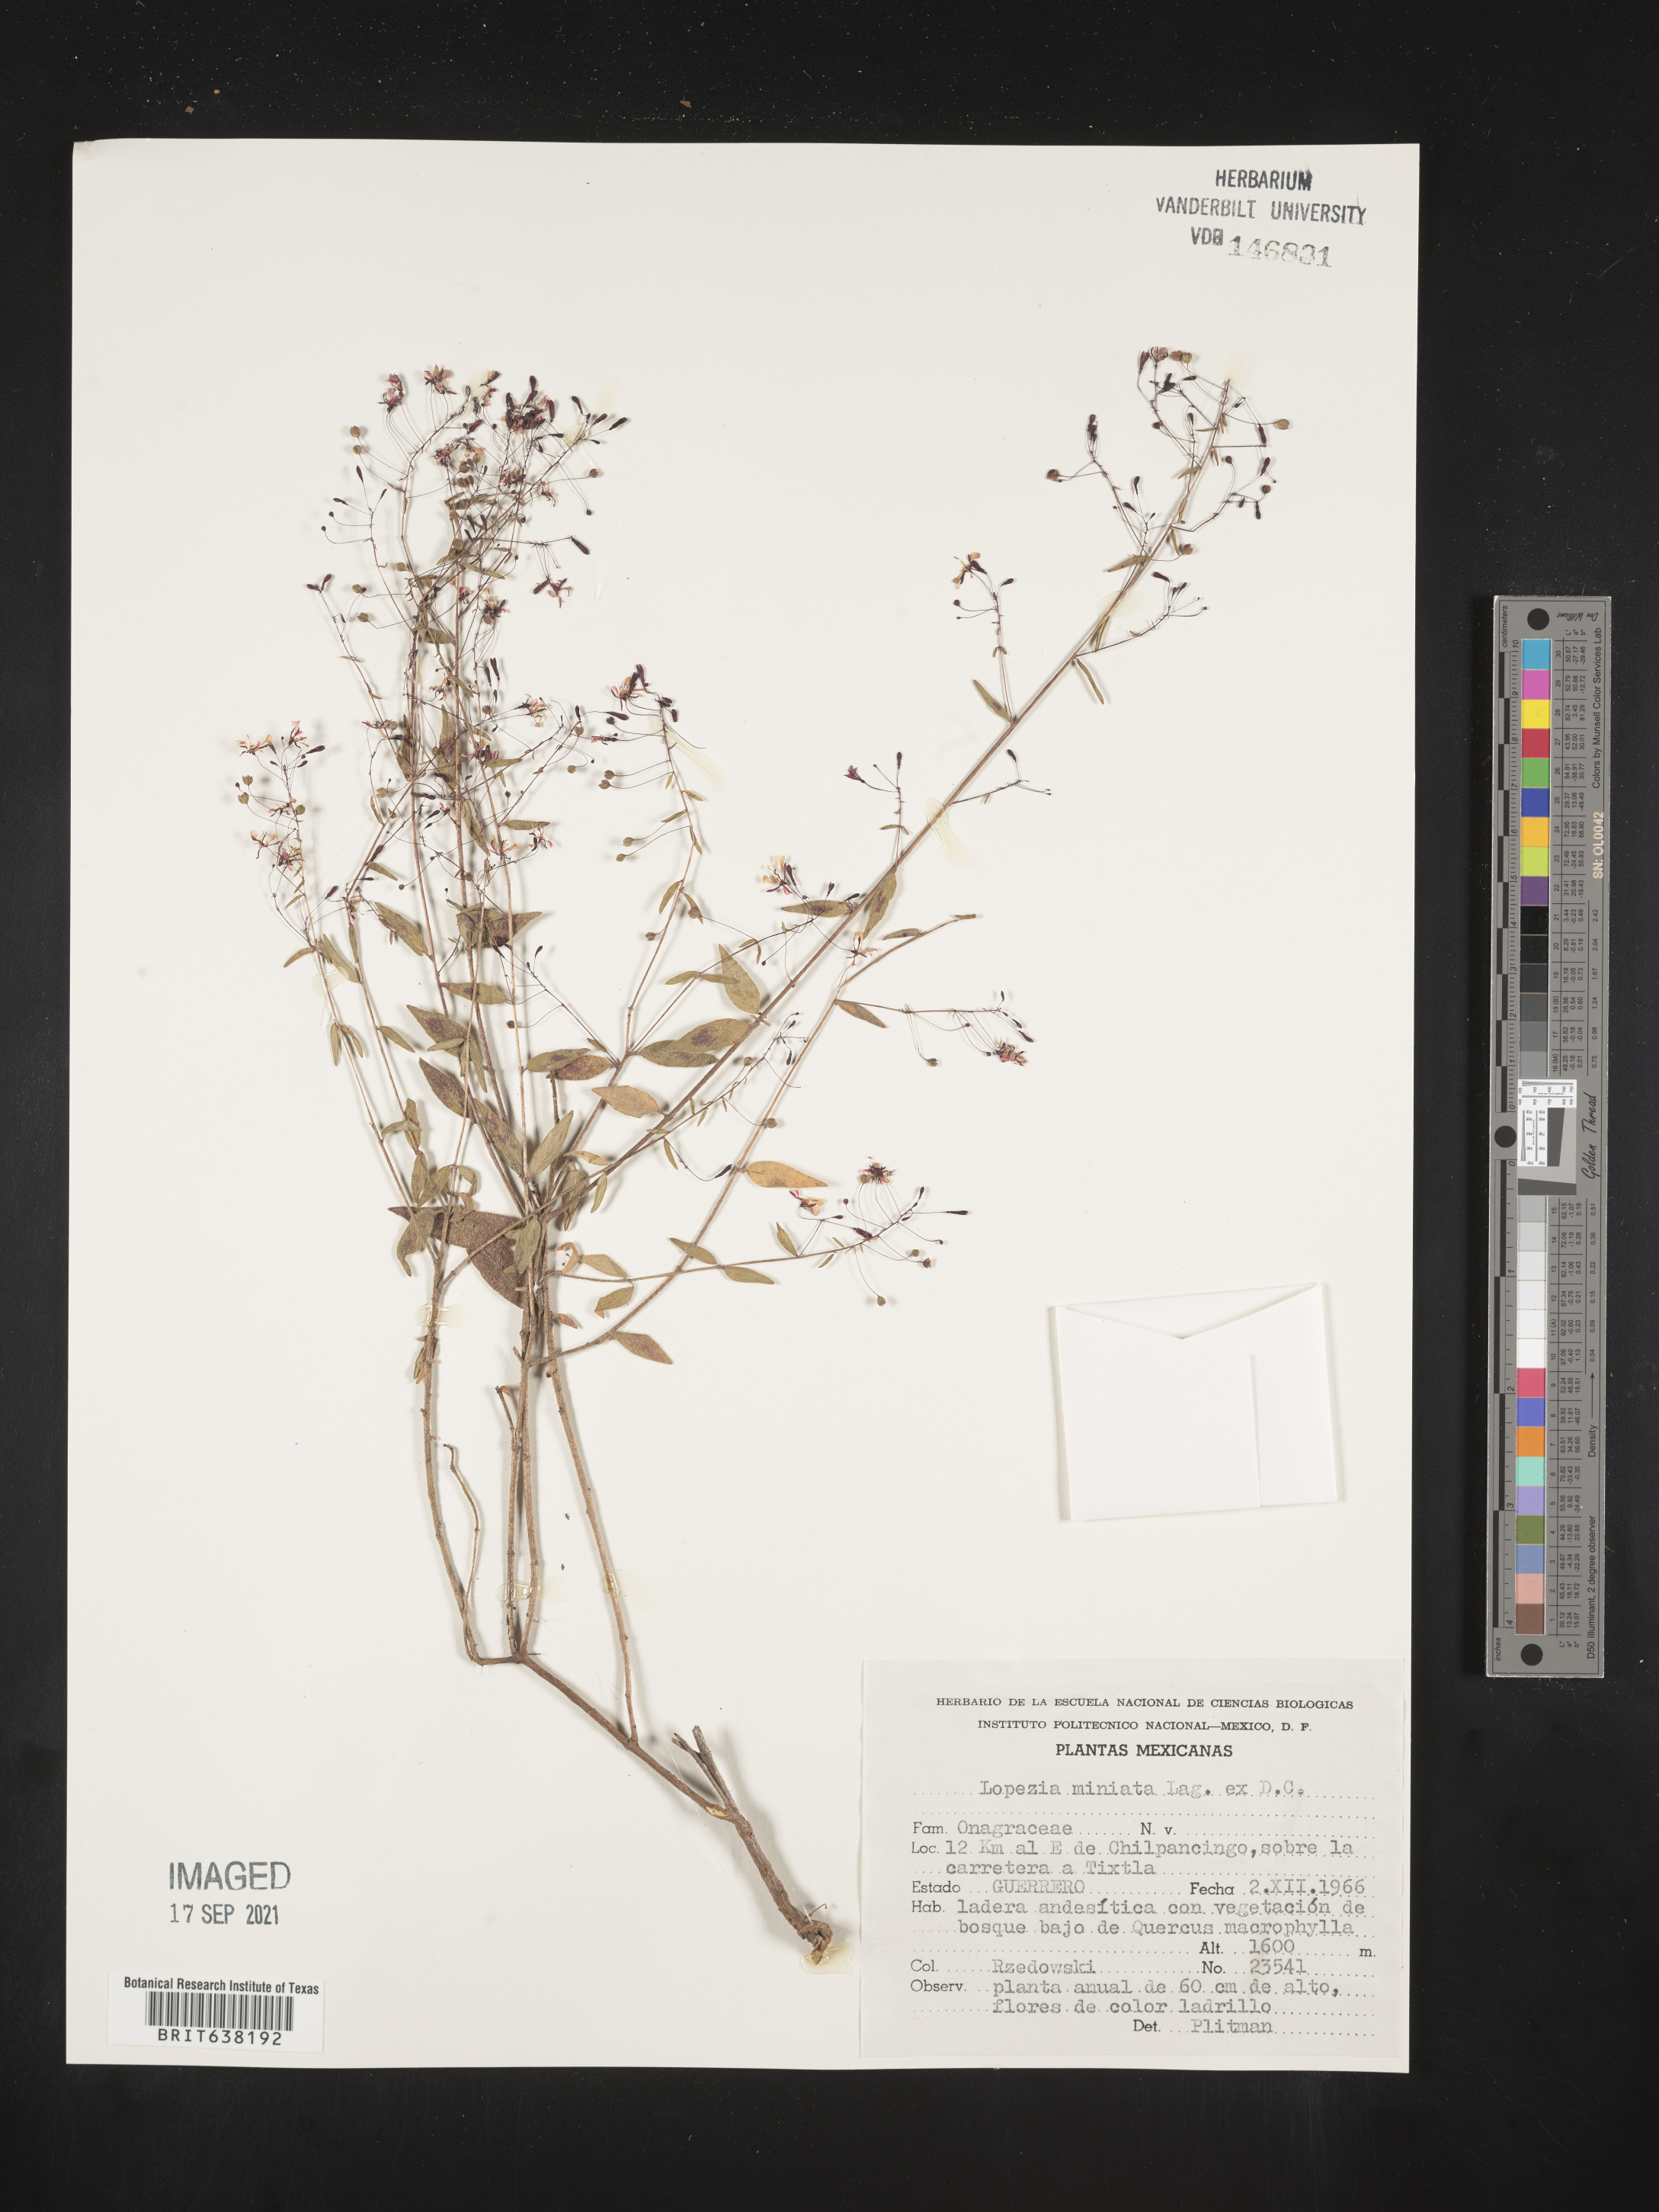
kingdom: Plantae
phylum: Tracheophyta
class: Magnoliopsida
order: Myrtales
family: Onagraceae
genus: Lopezia
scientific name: Lopezia
